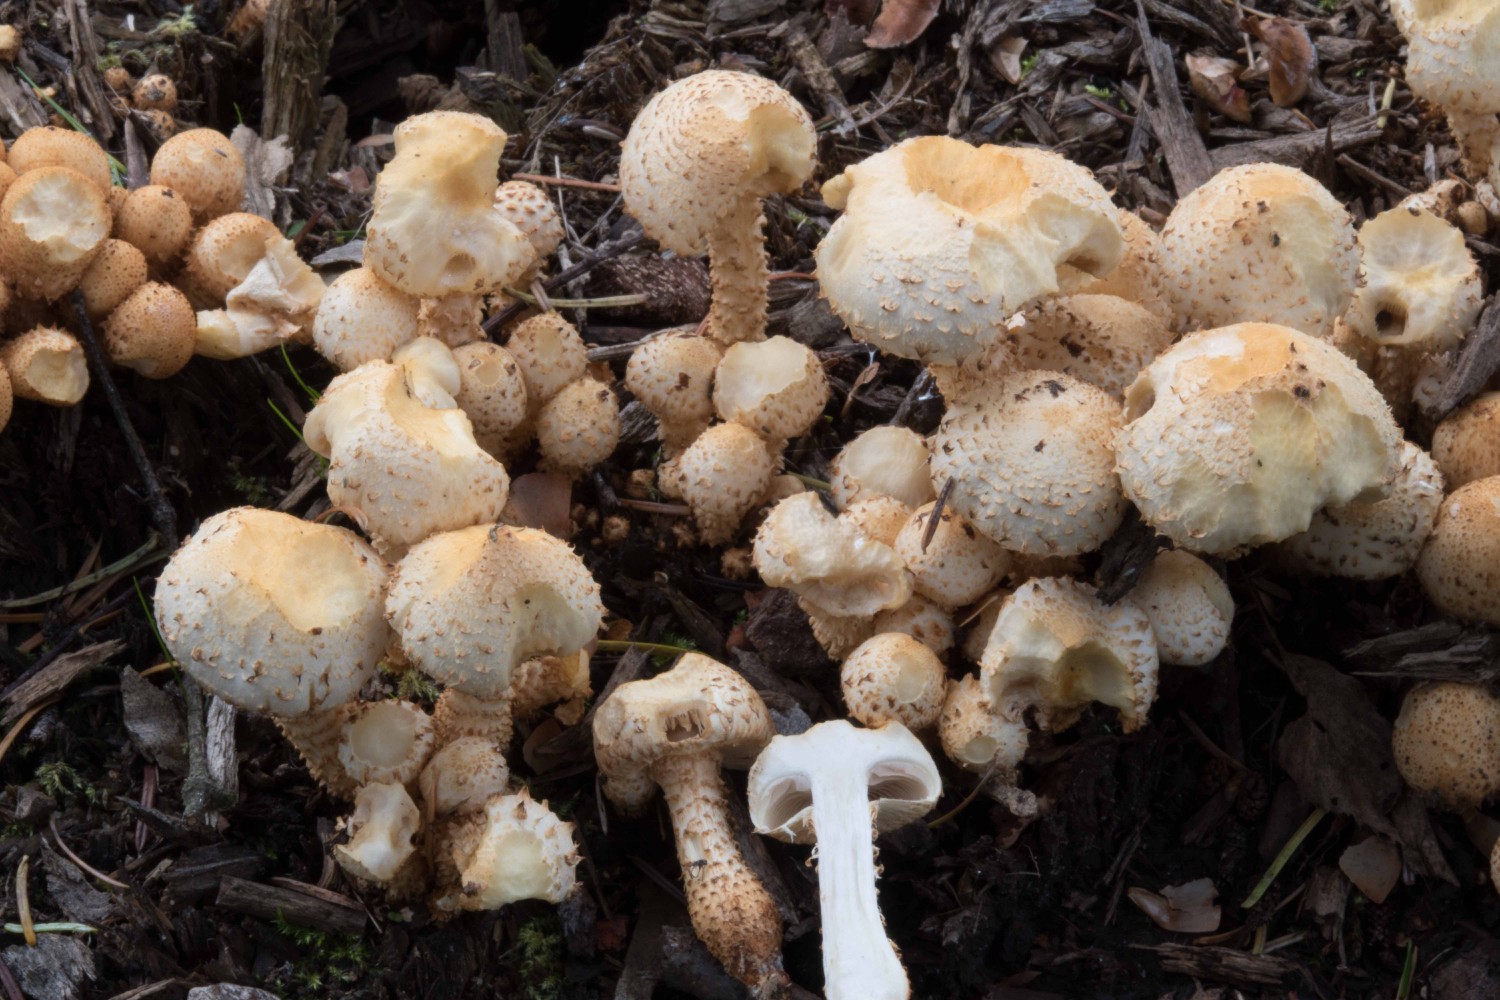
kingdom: Fungi
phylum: Basidiomycota
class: Agaricomycetes
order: Agaricales
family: Strophariaceae
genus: Pholiota
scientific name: Pholiota squarrosa
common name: krumskællet skælhat
